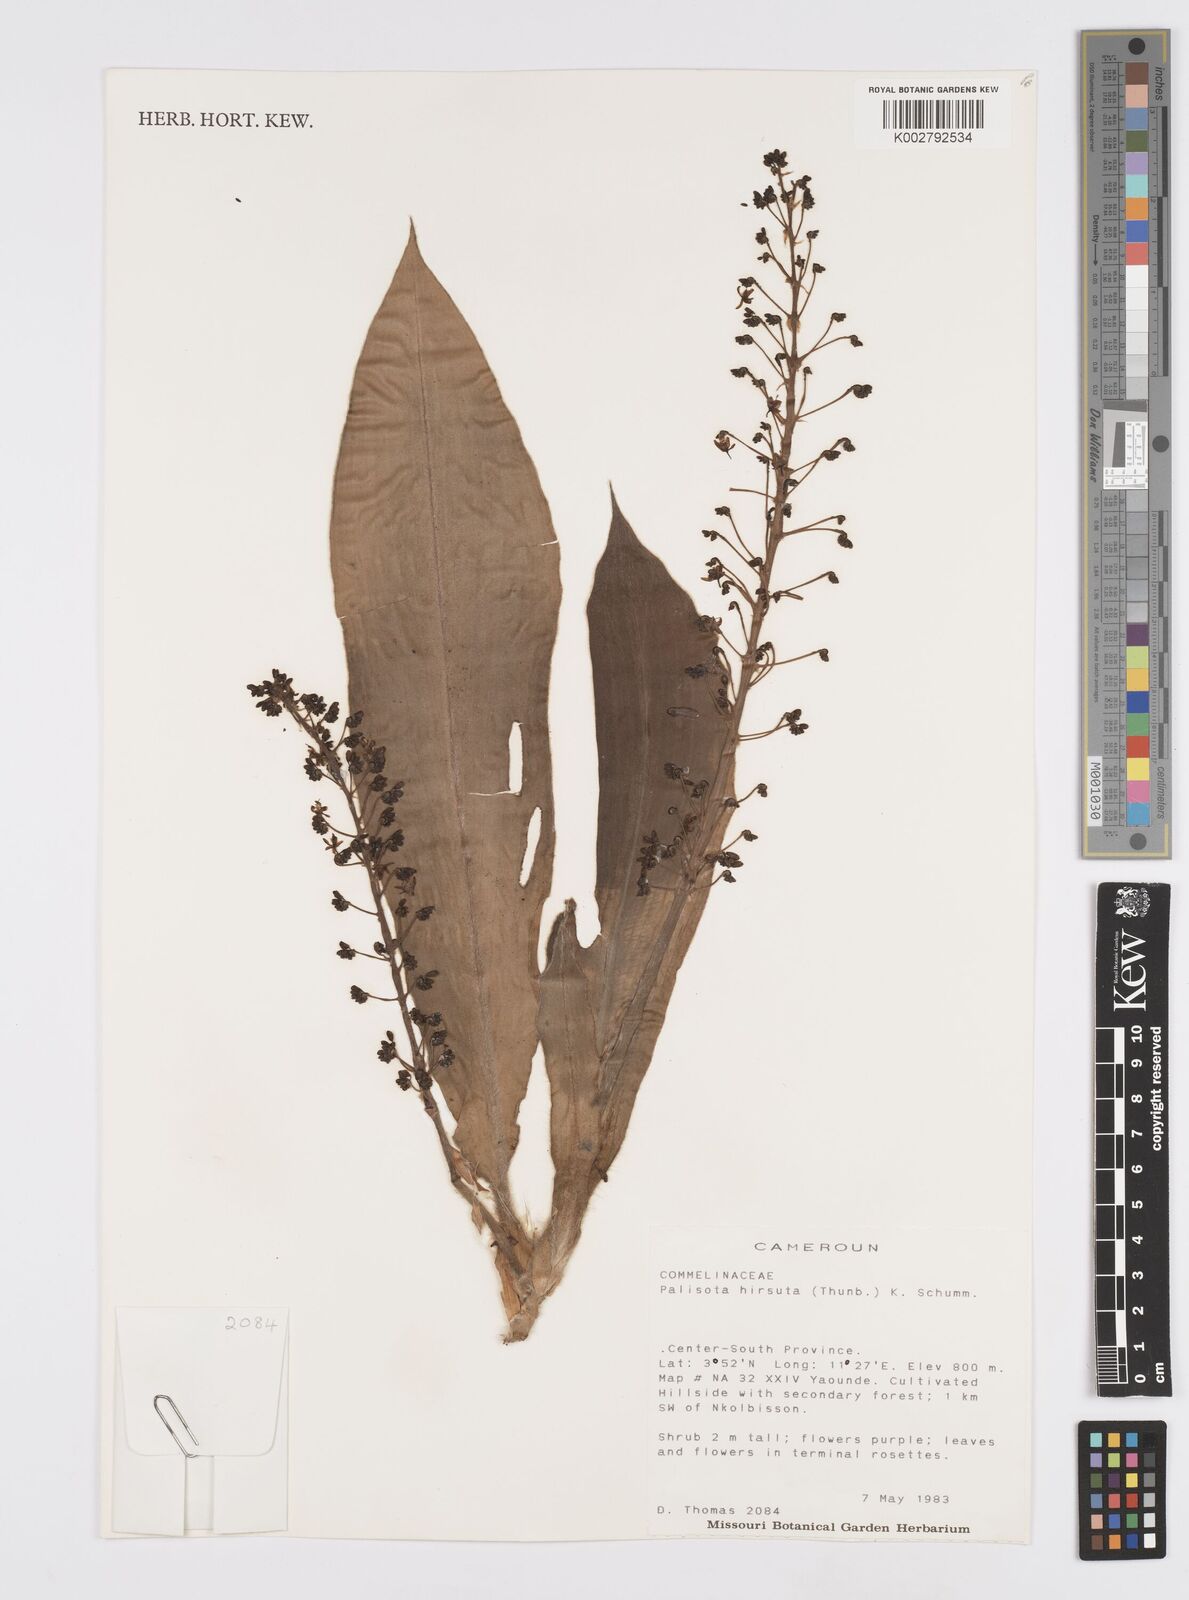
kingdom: Plantae
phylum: Tracheophyta
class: Liliopsida
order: Commelinales
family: Commelinaceae
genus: Palisota
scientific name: Palisota hirsuta
